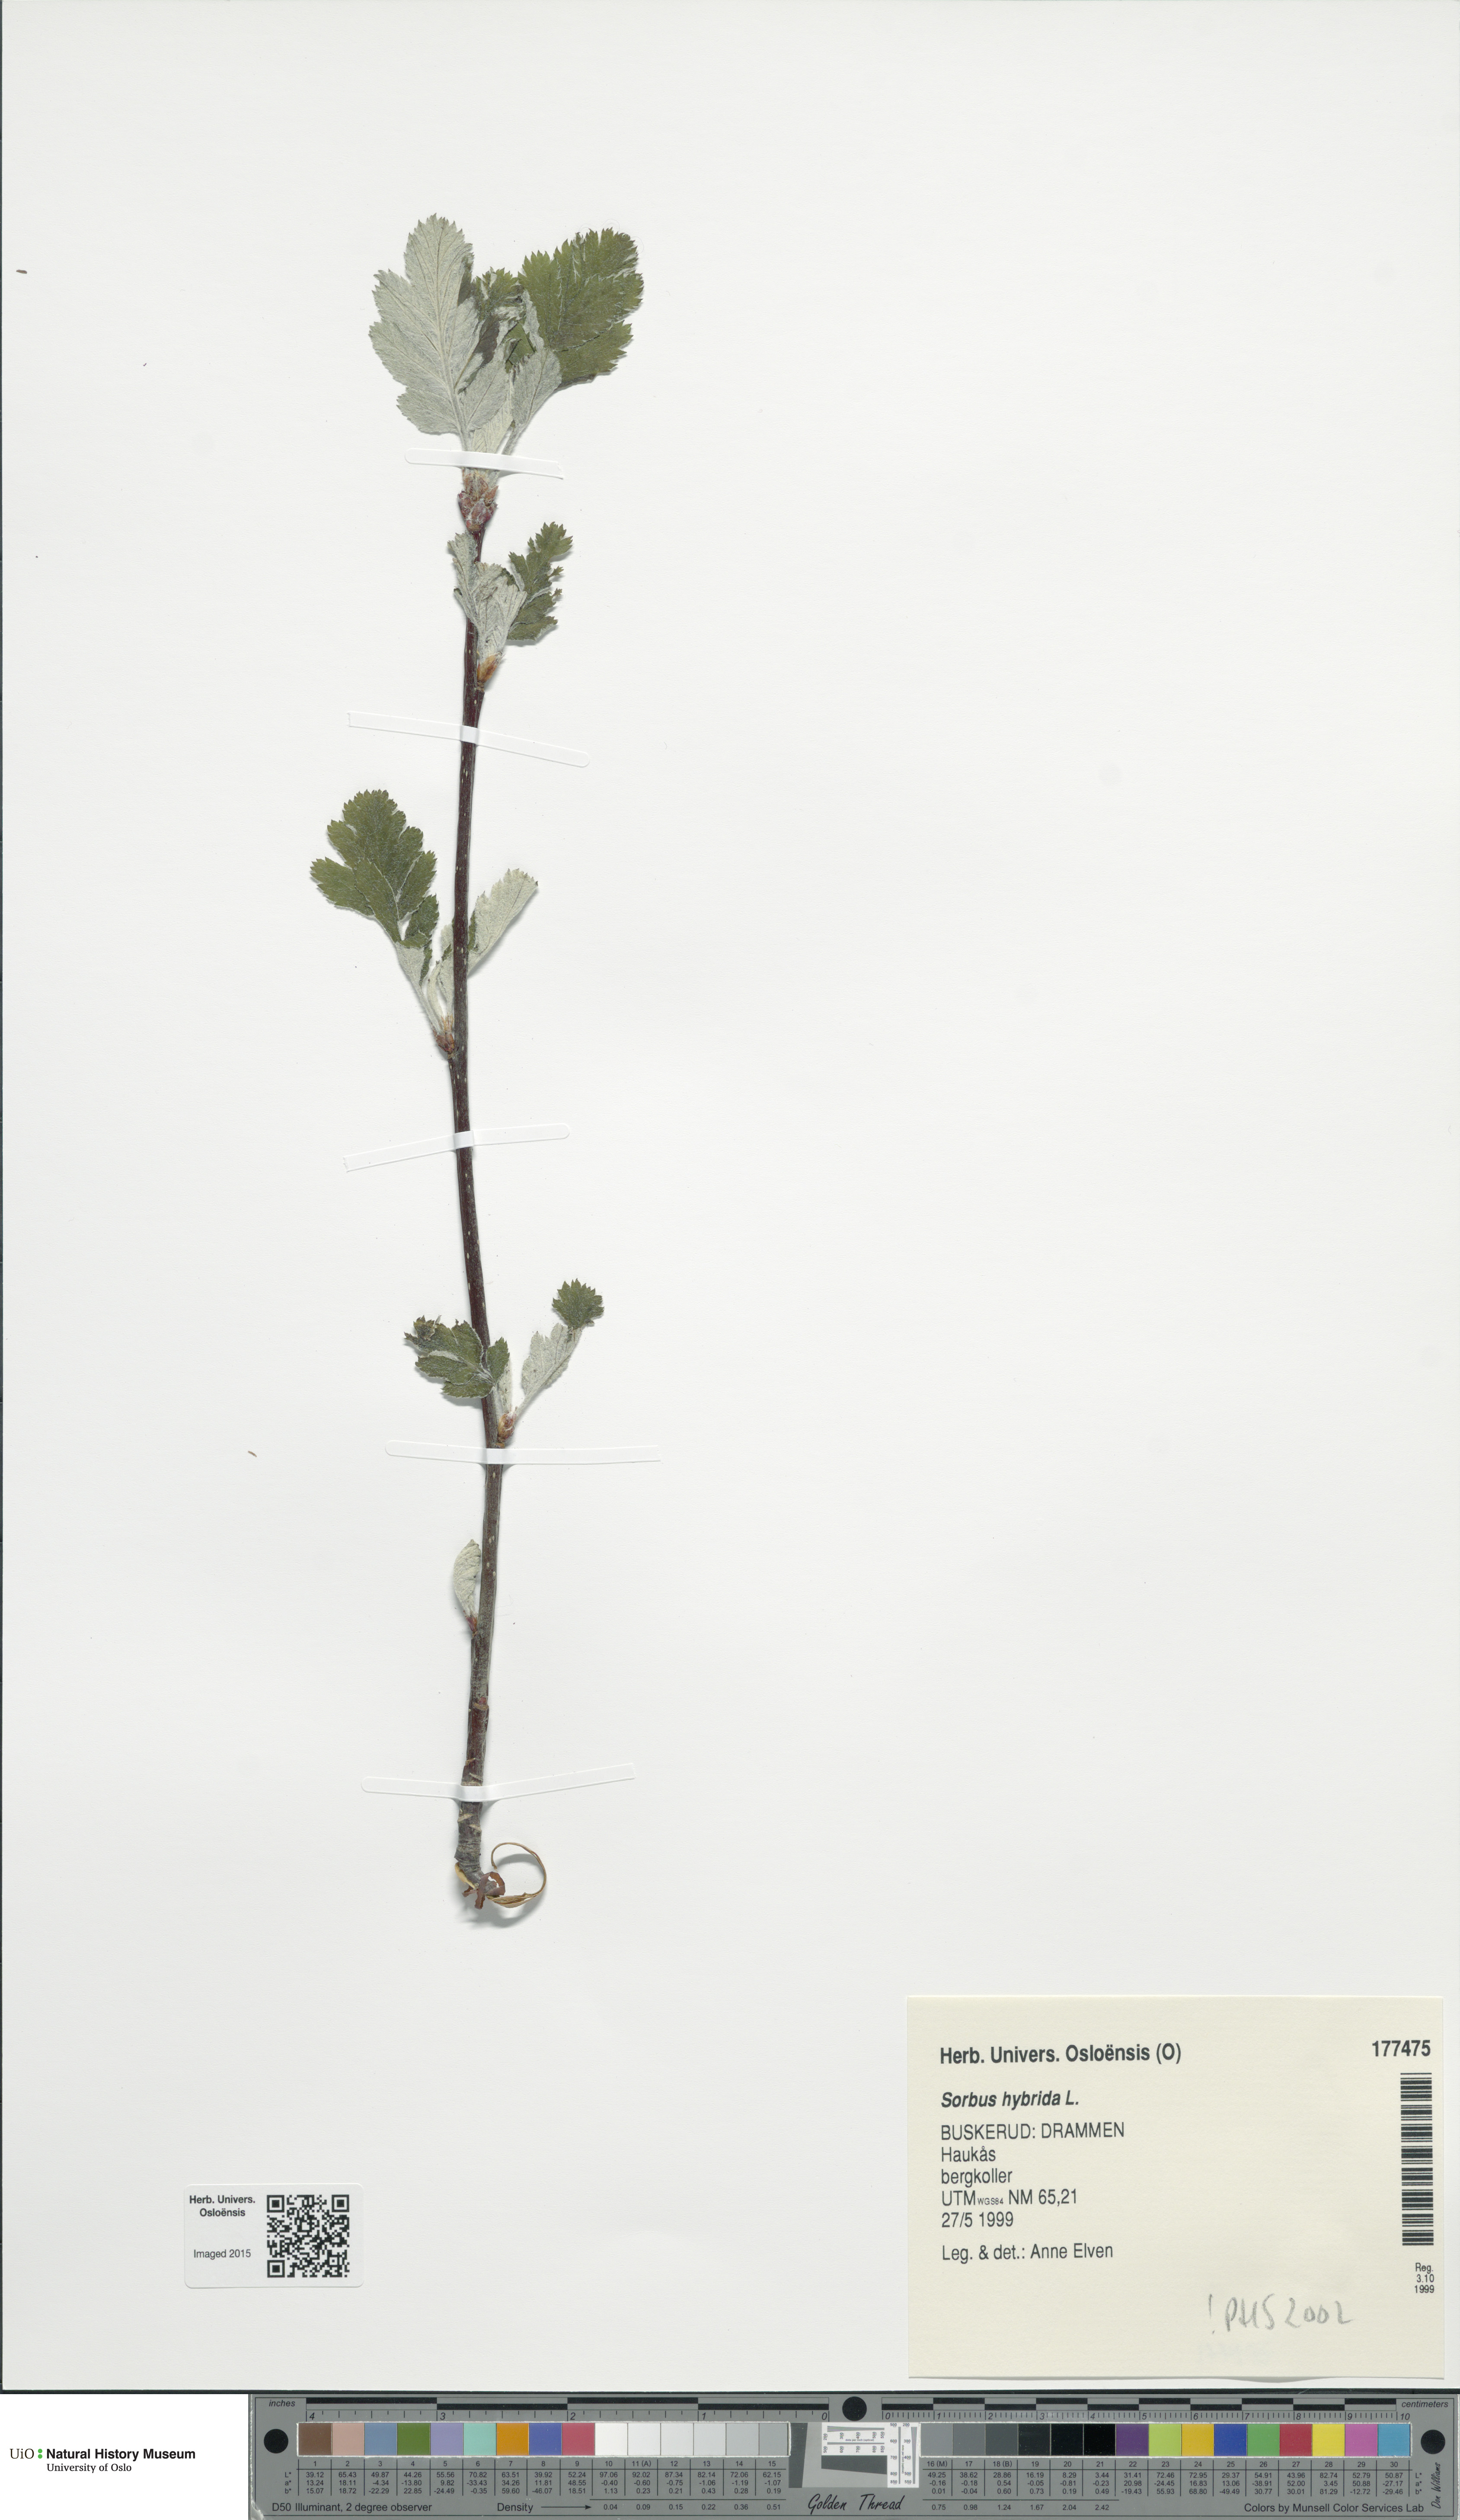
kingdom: Plantae
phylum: Tracheophyta
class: Magnoliopsida
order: Rosales
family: Rosaceae
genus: Hedlundia
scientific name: Hedlundia hybrida
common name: Swedish service-tree
